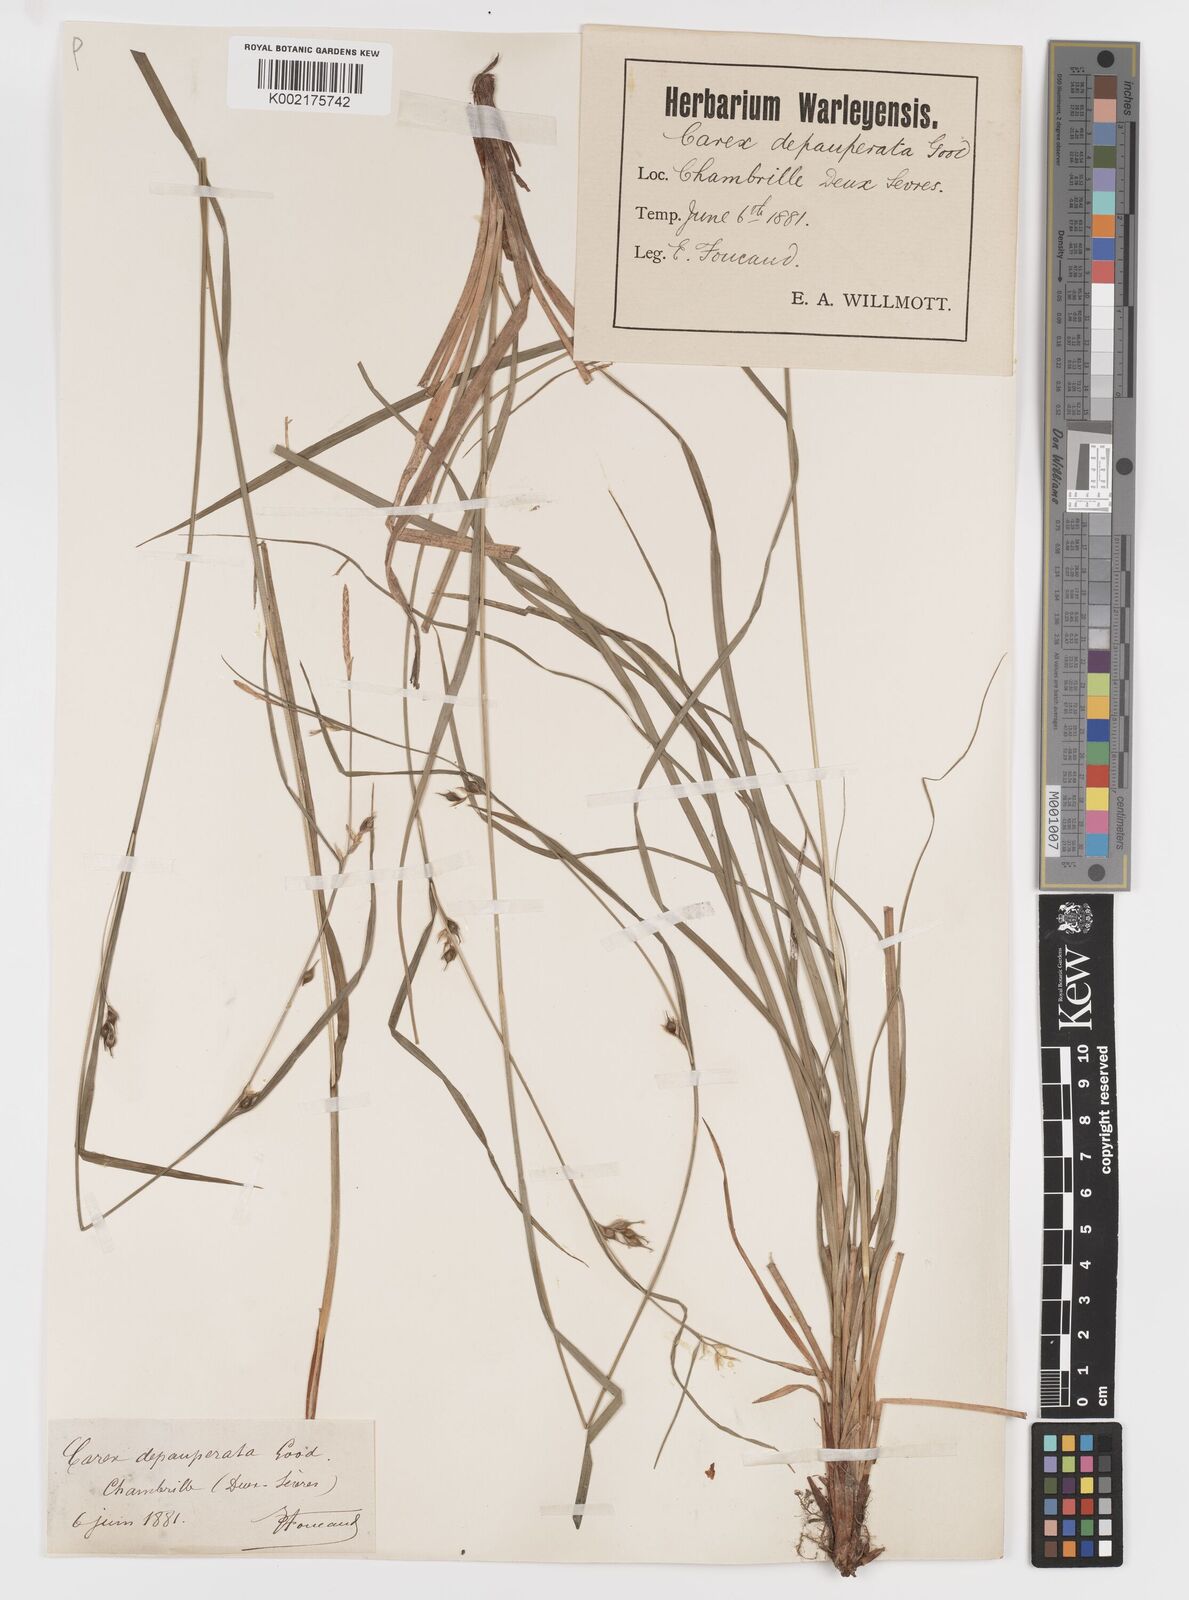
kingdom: Plantae
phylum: Tracheophyta
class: Liliopsida
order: Poales
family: Cyperaceae
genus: Carex
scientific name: Carex
